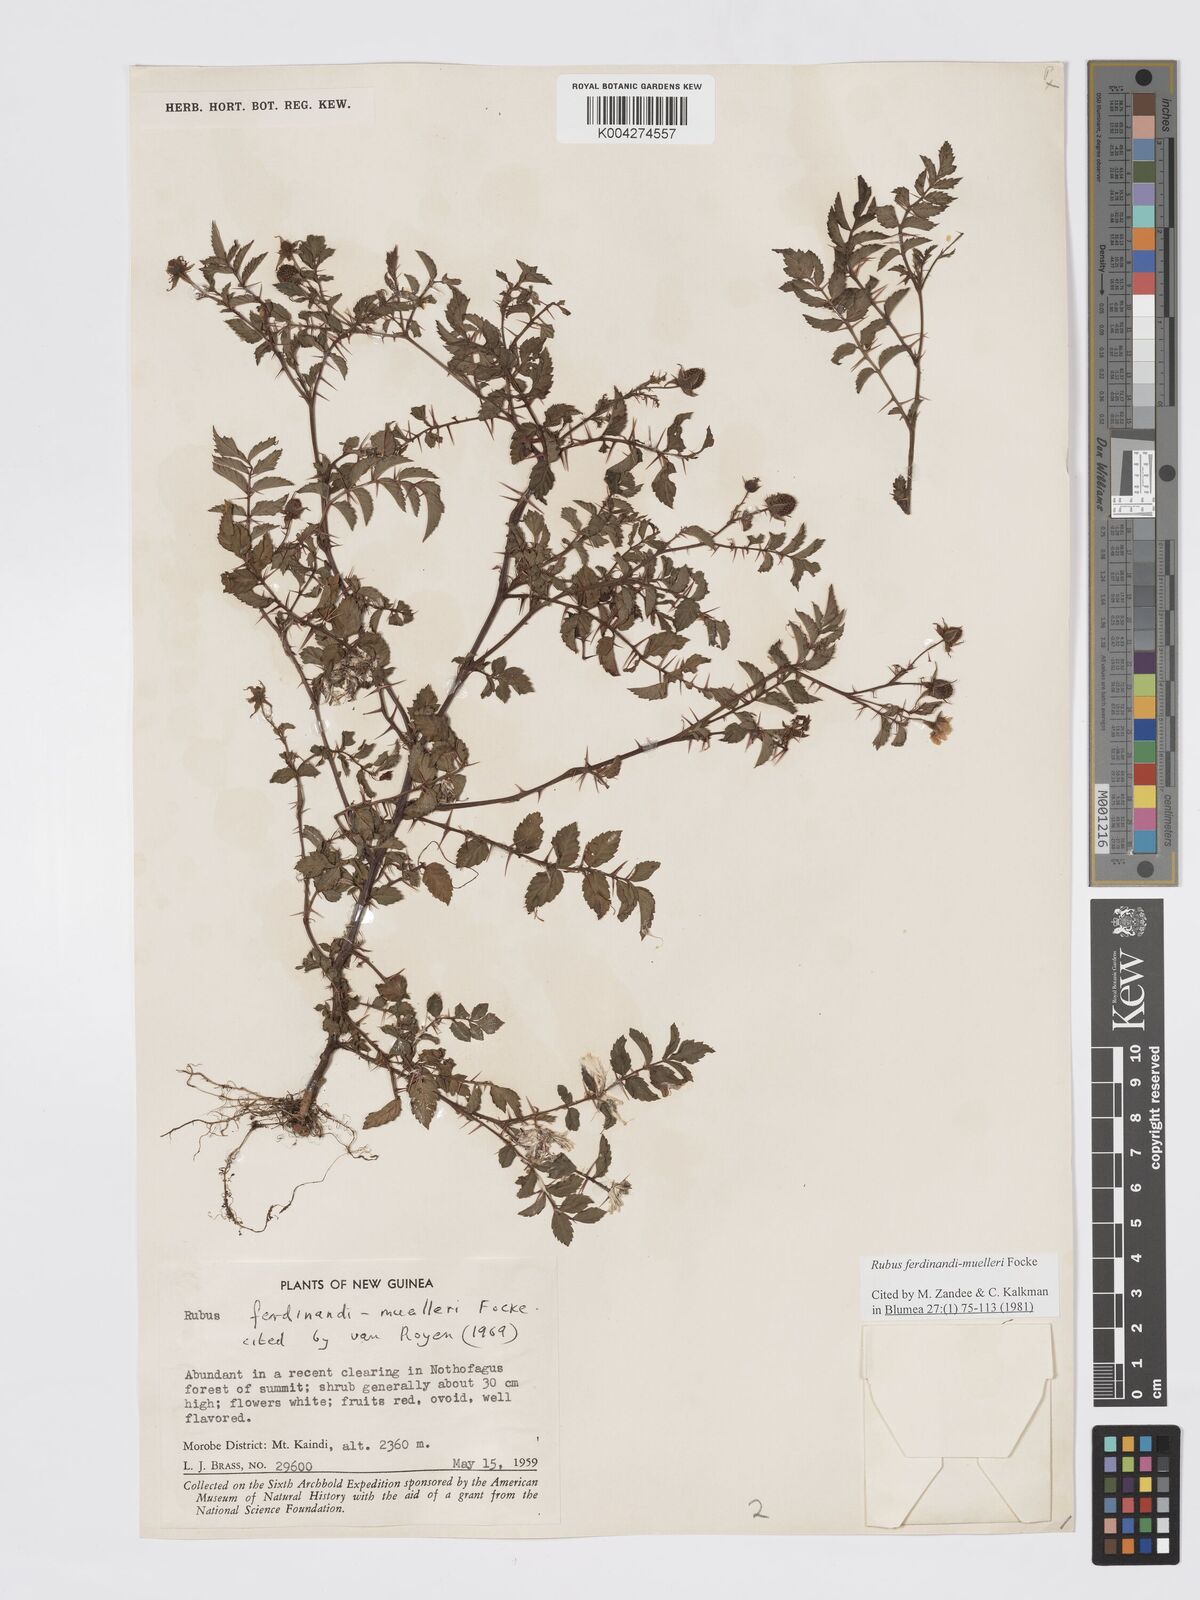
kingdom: Plantae
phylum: Tracheophyta
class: Magnoliopsida
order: Rosales
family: Rosaceae
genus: Rubus
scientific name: Rubus ferdinandimuelleri
